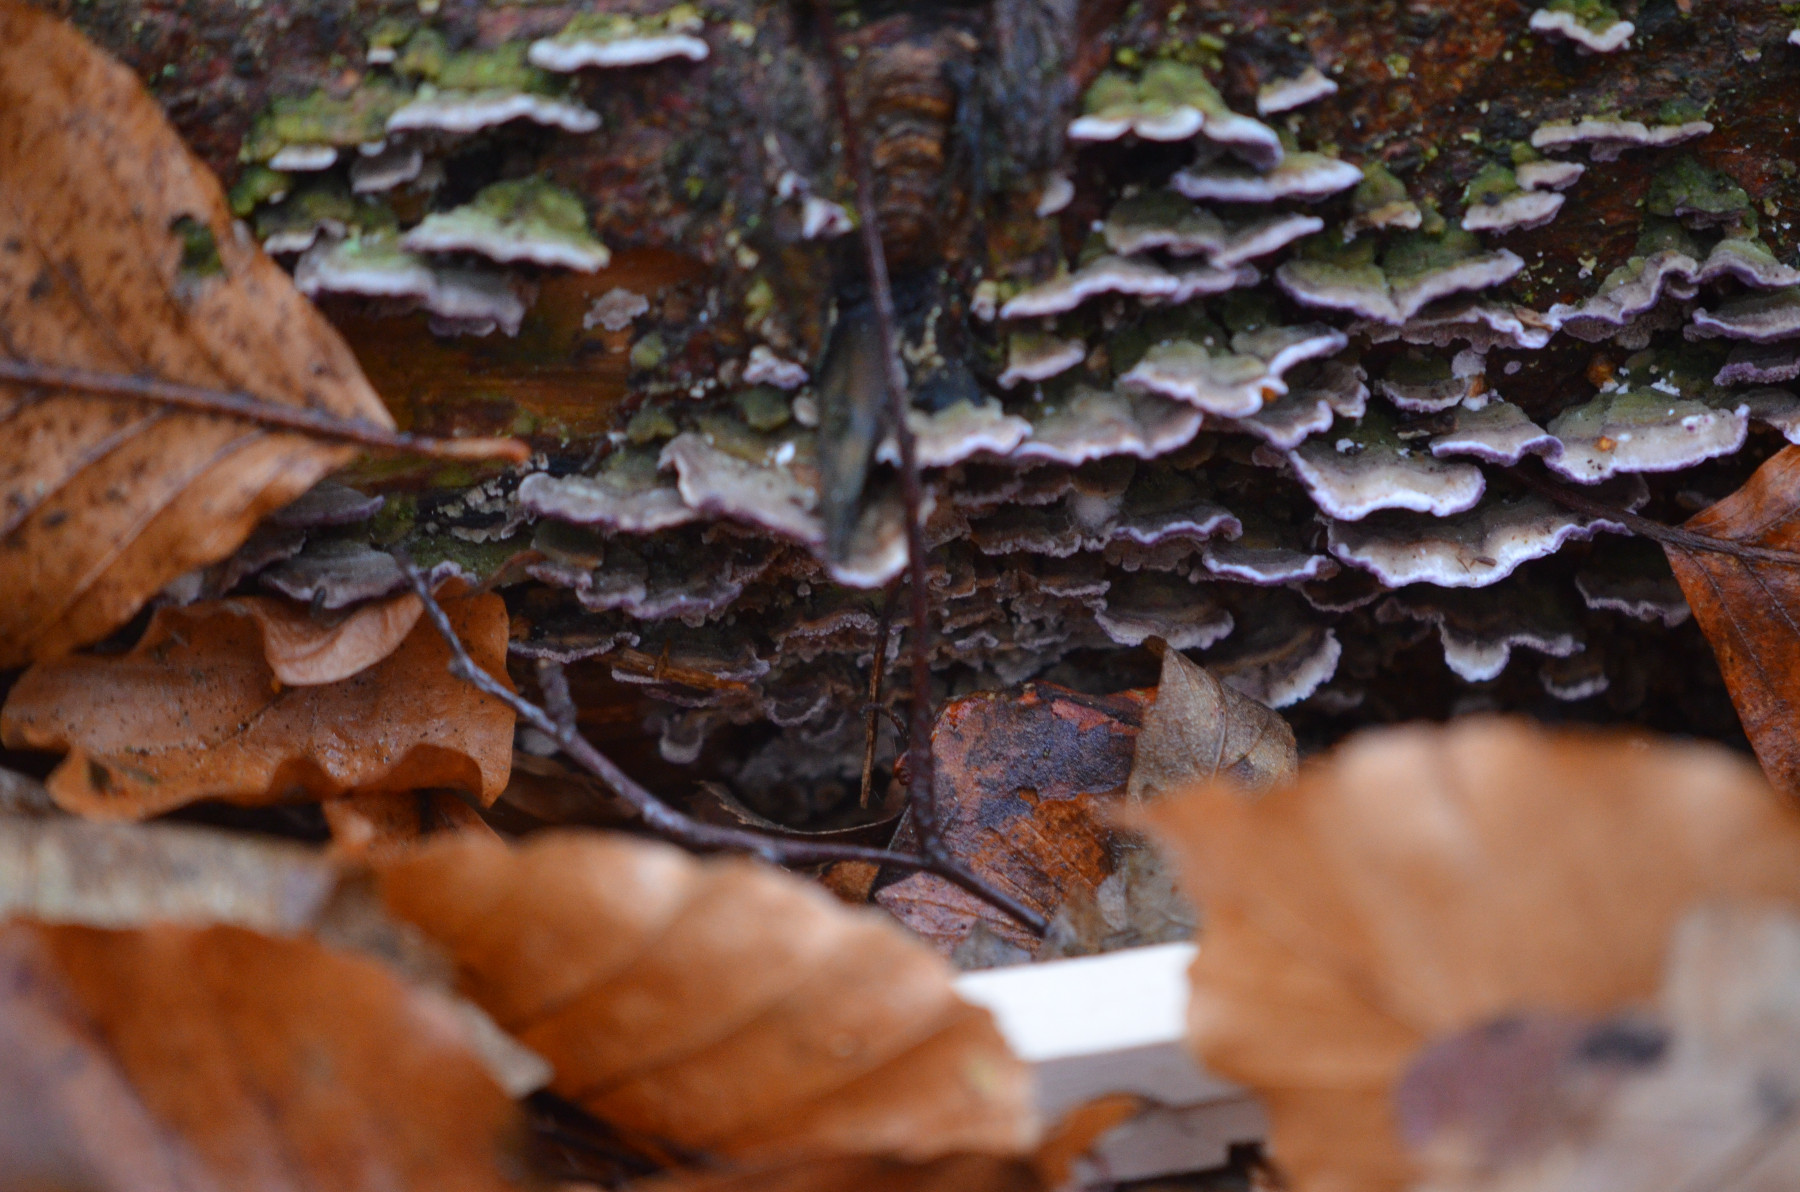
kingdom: Fungi
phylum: Basidiomycota
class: Agaricomycetes
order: Hymenochaetales
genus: Trichaptum
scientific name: Trichaptum abietinum
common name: almindelig violporesvamp
